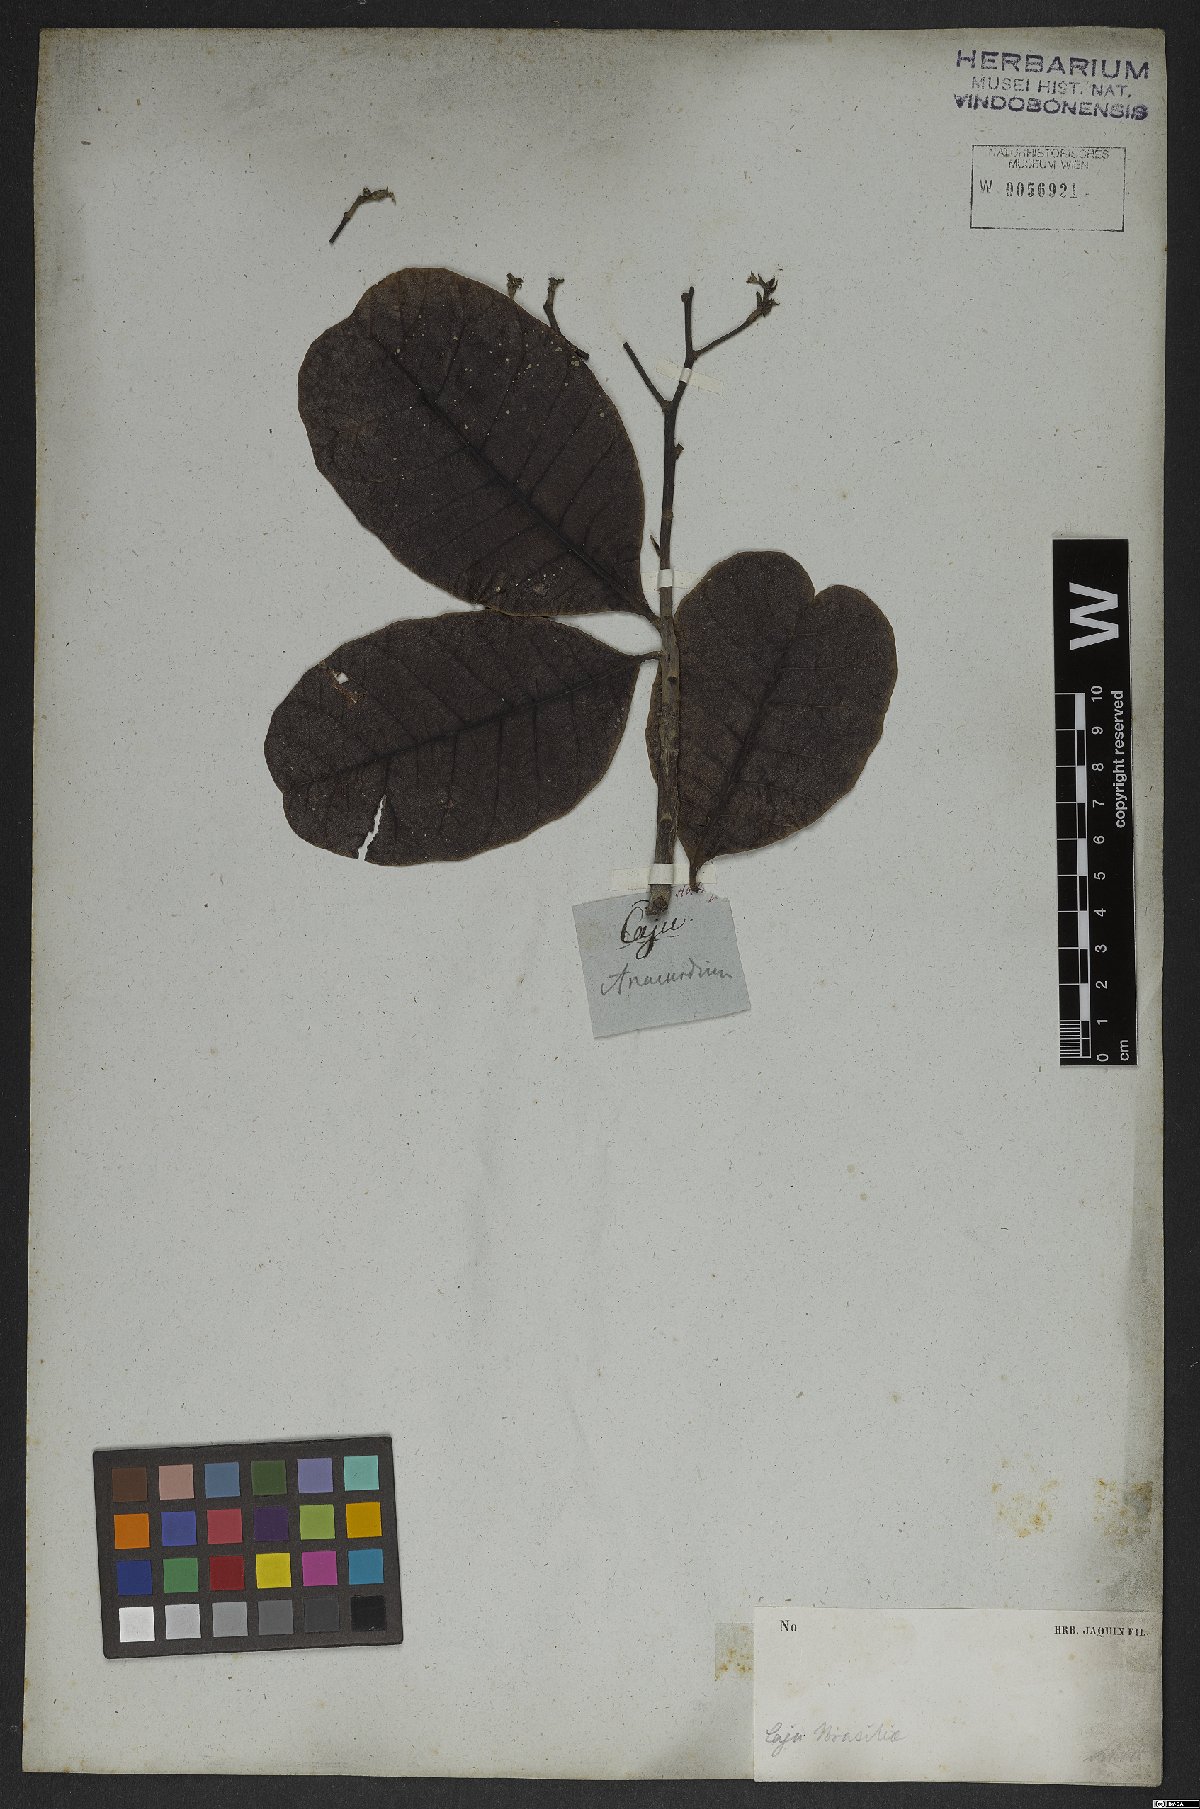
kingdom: Plantae
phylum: Tracheophyta
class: Magnoliopsida
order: Sapindales
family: Anacardiaceae
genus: Anacardium
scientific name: Anacardium occidentale
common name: Cashew
